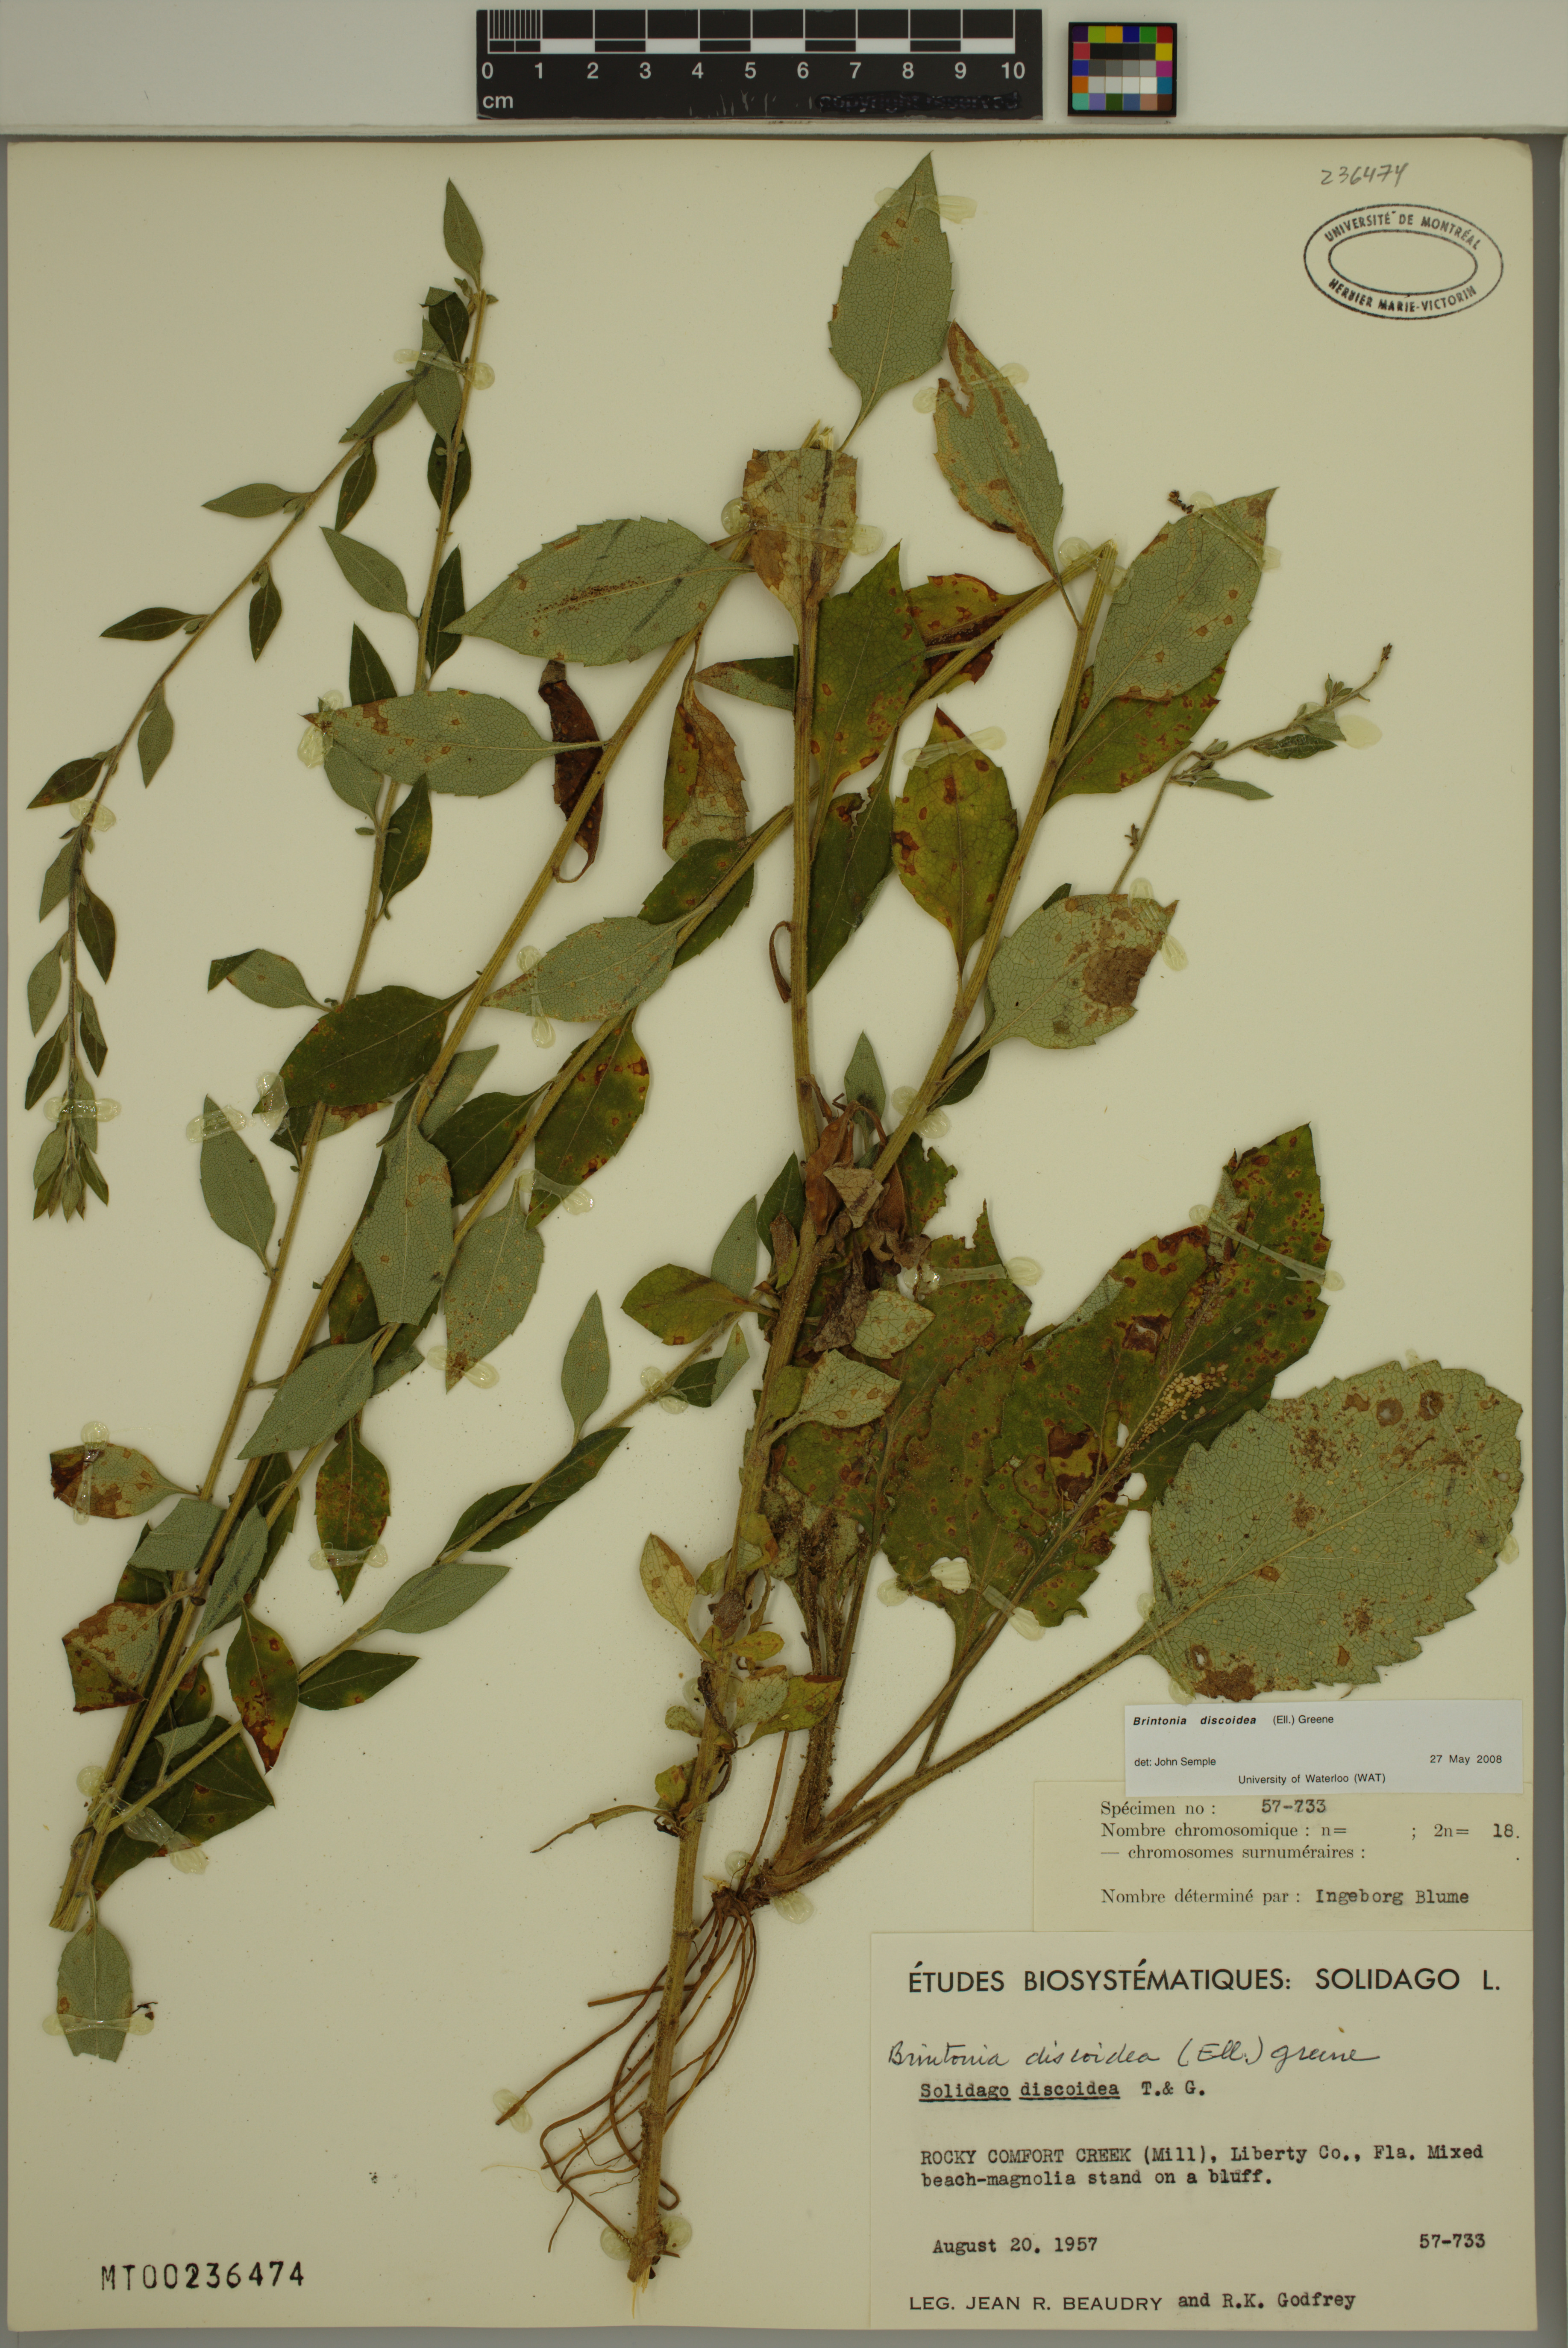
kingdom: Plantae
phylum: Tracheophyta
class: Magnoliopsida
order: Asterales
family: Asteraceae
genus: Solidago
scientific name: Solidago discoidea
